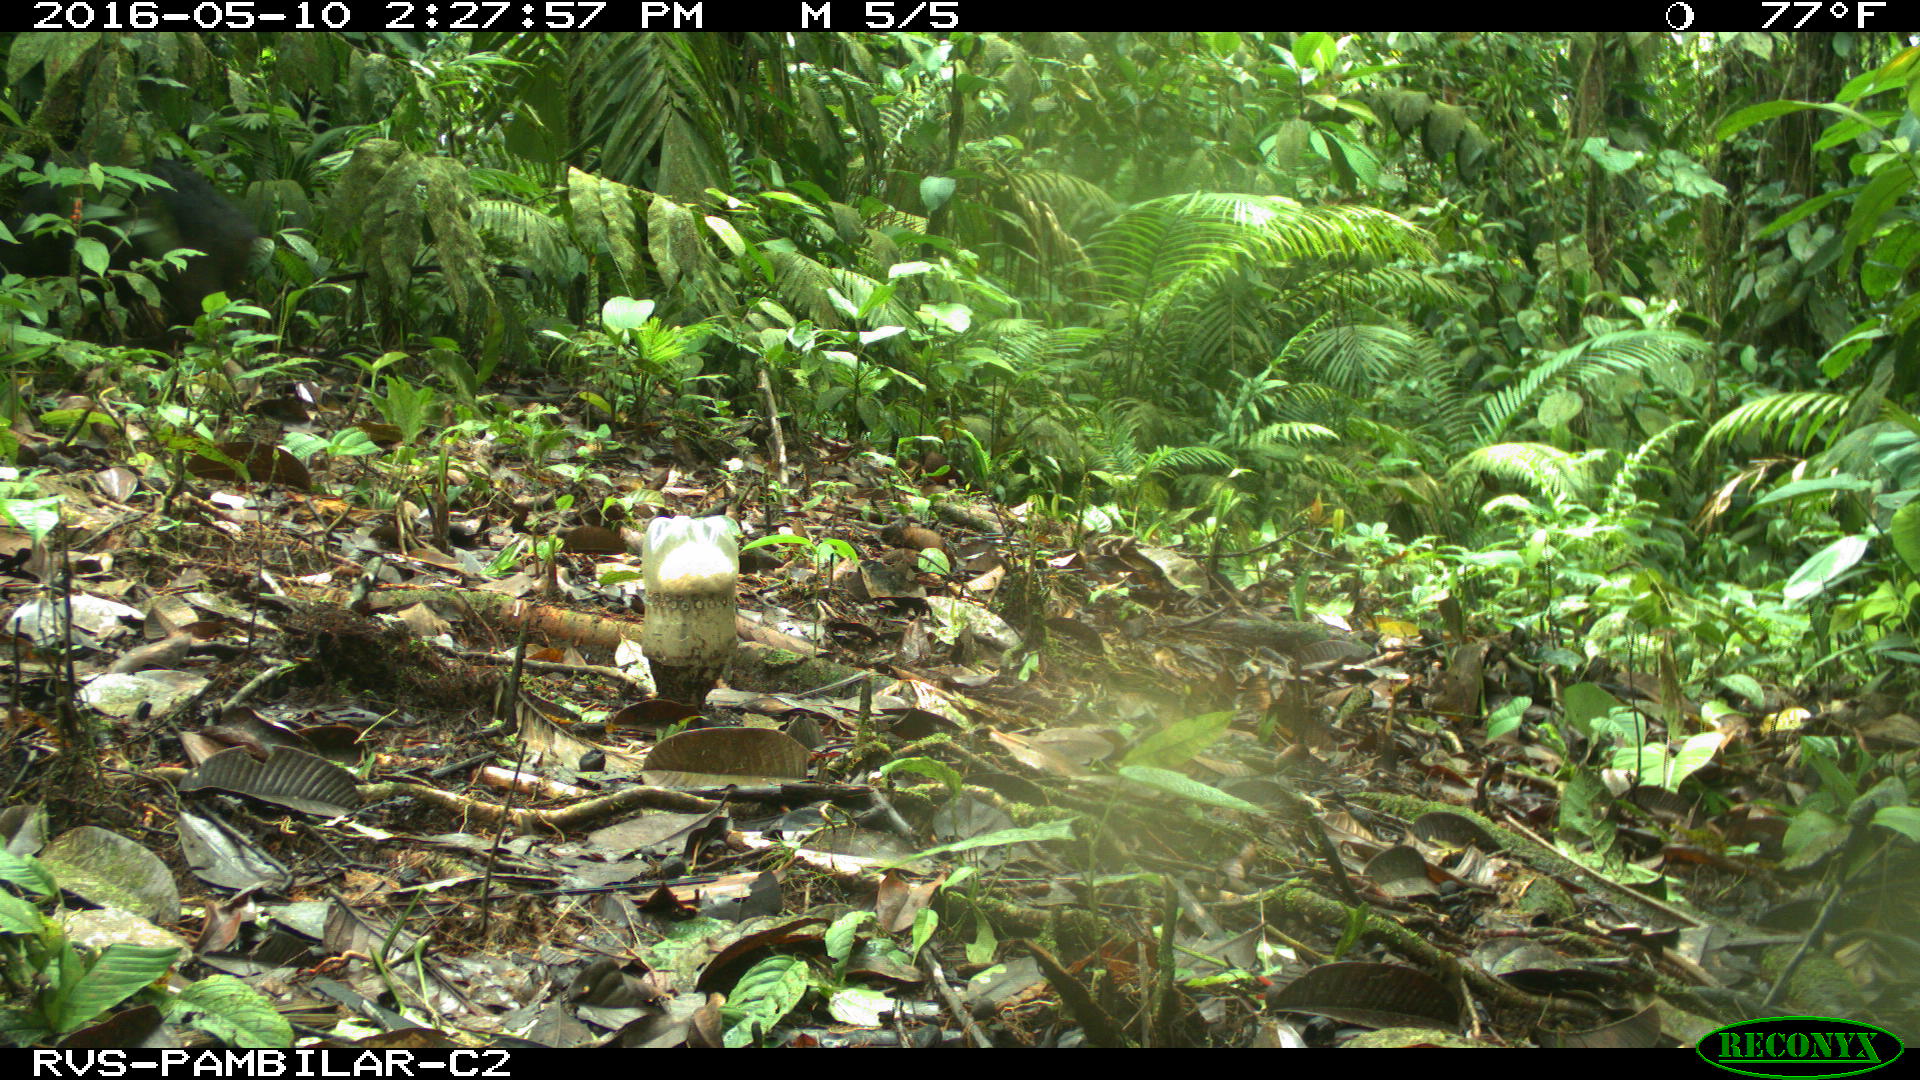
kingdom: Animalia
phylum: Chordata
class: Mammalia
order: Artiodactyla
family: Tayassuidae
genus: Tayassu
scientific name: Tayassu pecari
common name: White-lipped peccary
